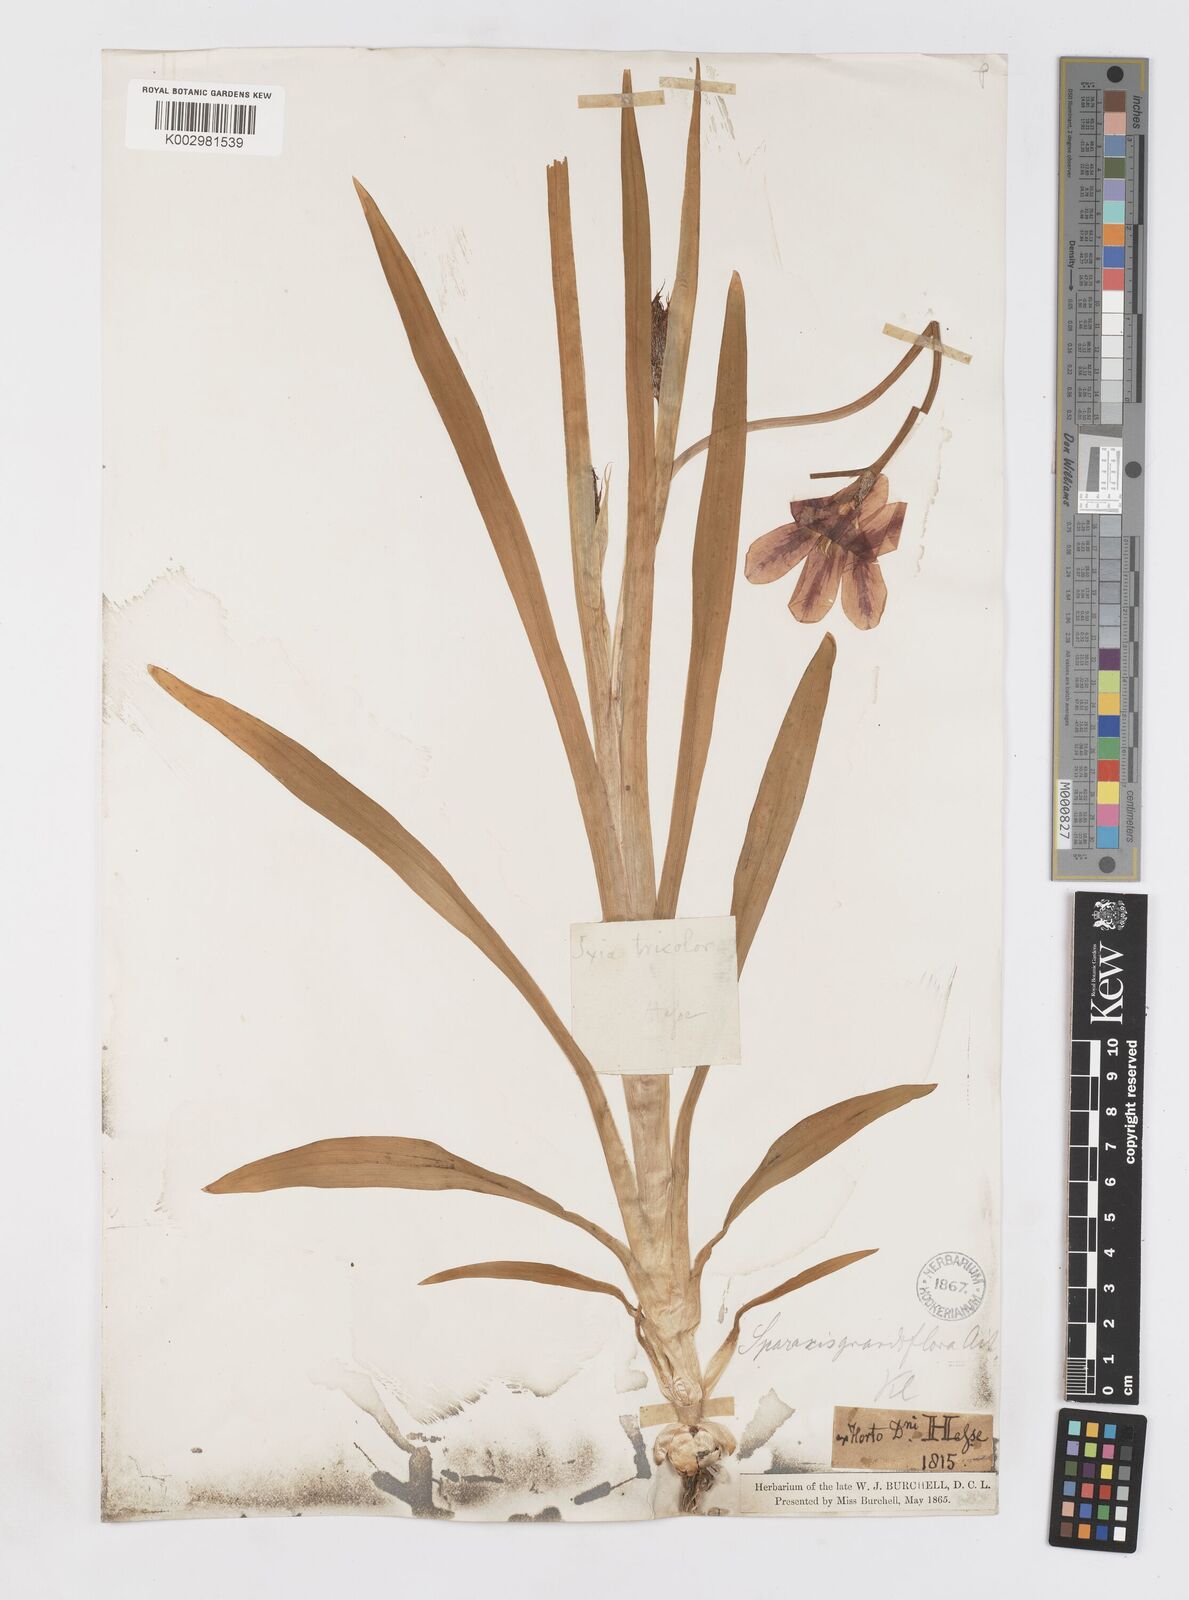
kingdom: Plantae
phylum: Tracheophyta
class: Liliopsida
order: Asparagales
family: Iridaceae
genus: Sparaxis
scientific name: Sparaxis
